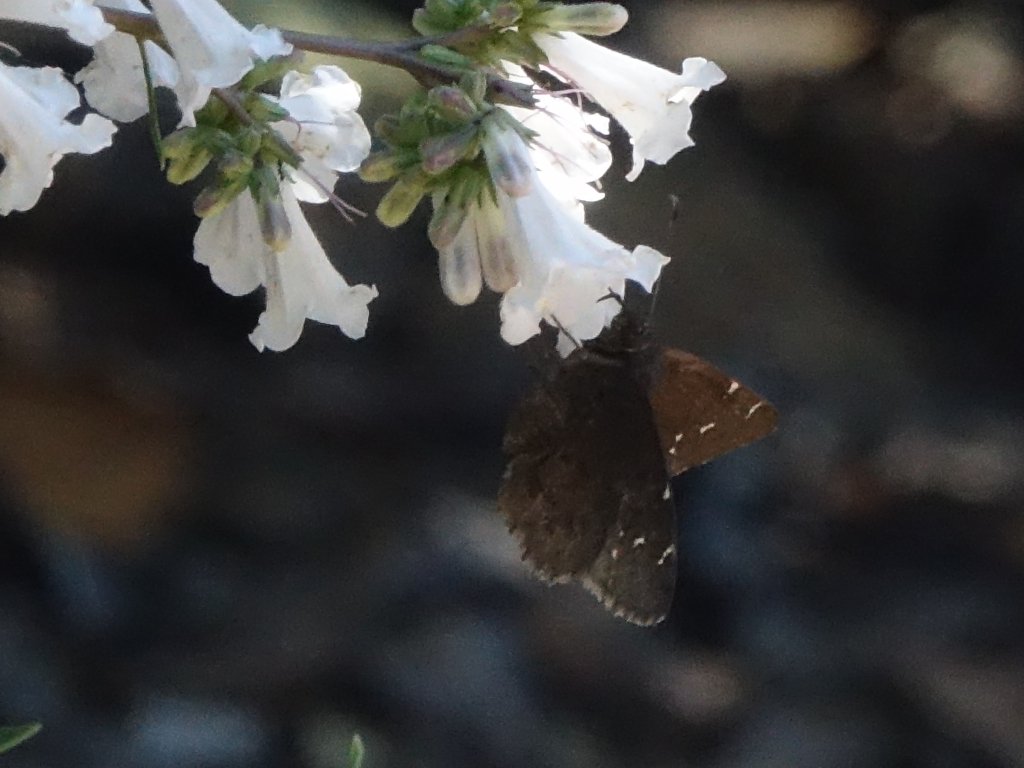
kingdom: Animalia
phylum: Arthropoda
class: Insecta
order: Lepidoptera
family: Hesperiidae
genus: Autochton
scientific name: Autochton
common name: Northern Cloudywing
